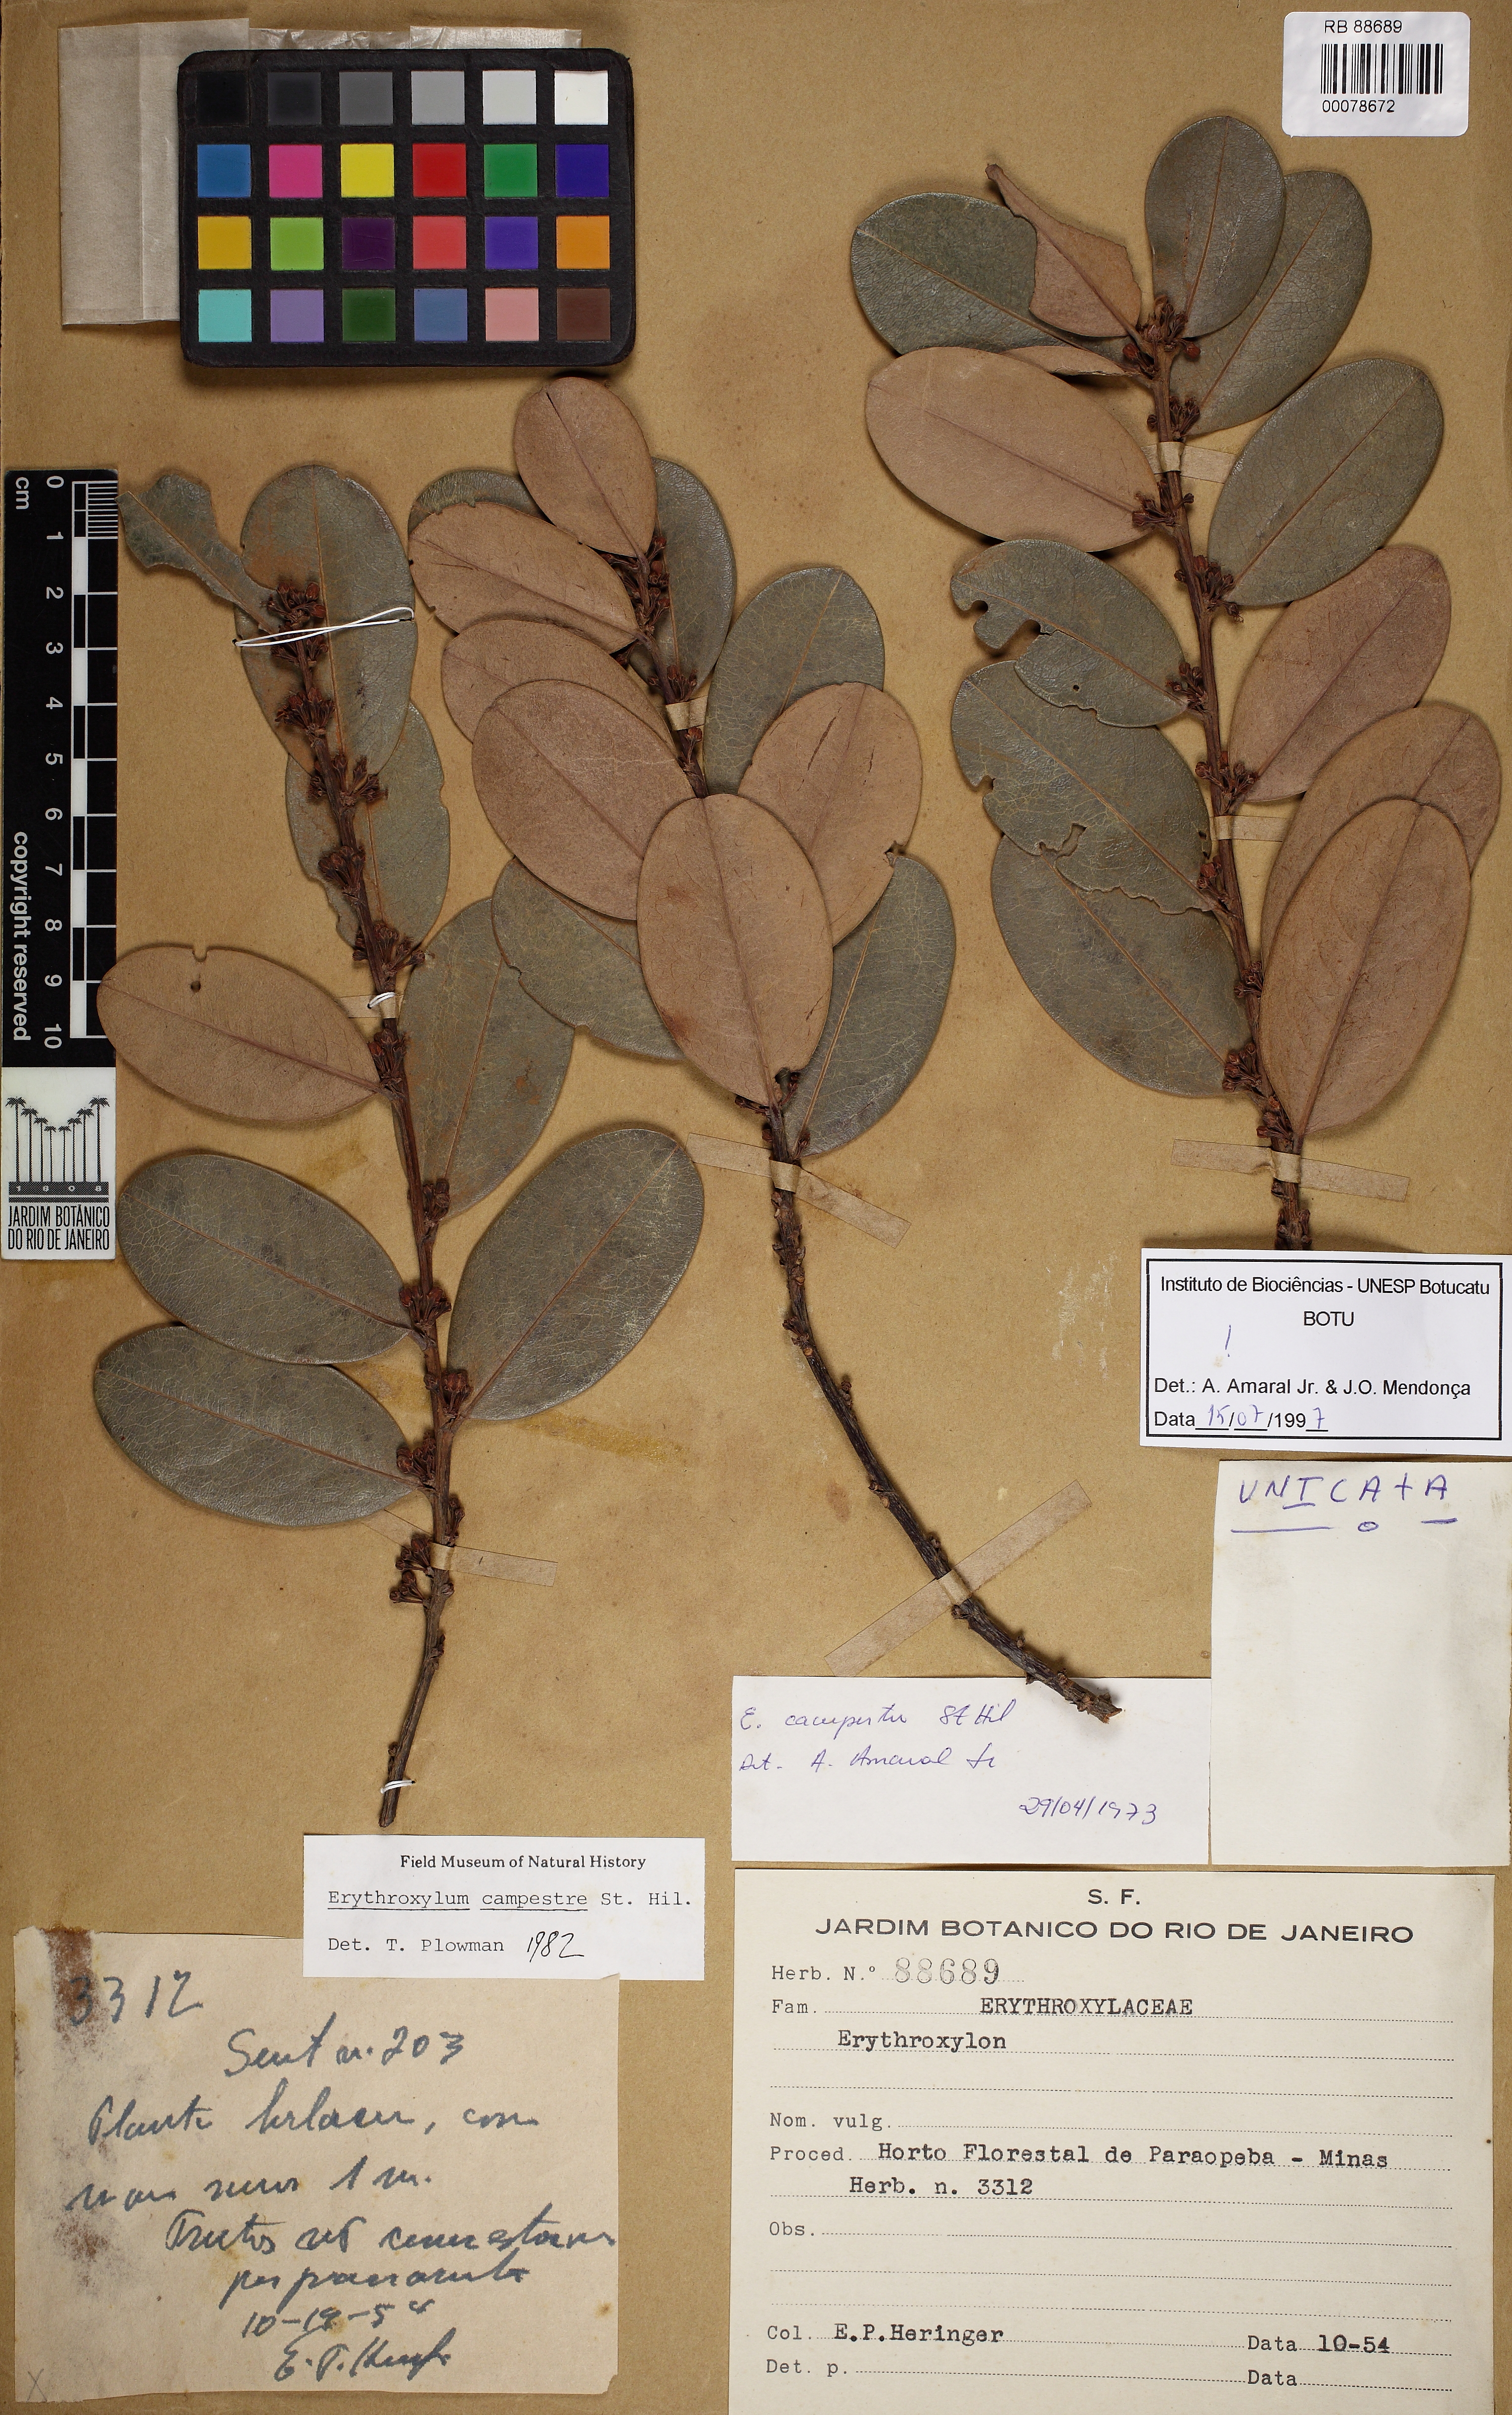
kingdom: Plantae
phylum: Tracheophyta
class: Magnoliopsida
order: Malpighiales
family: Erythroxylaceae
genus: Erythroxylum
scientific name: Erythroxylum campestre
